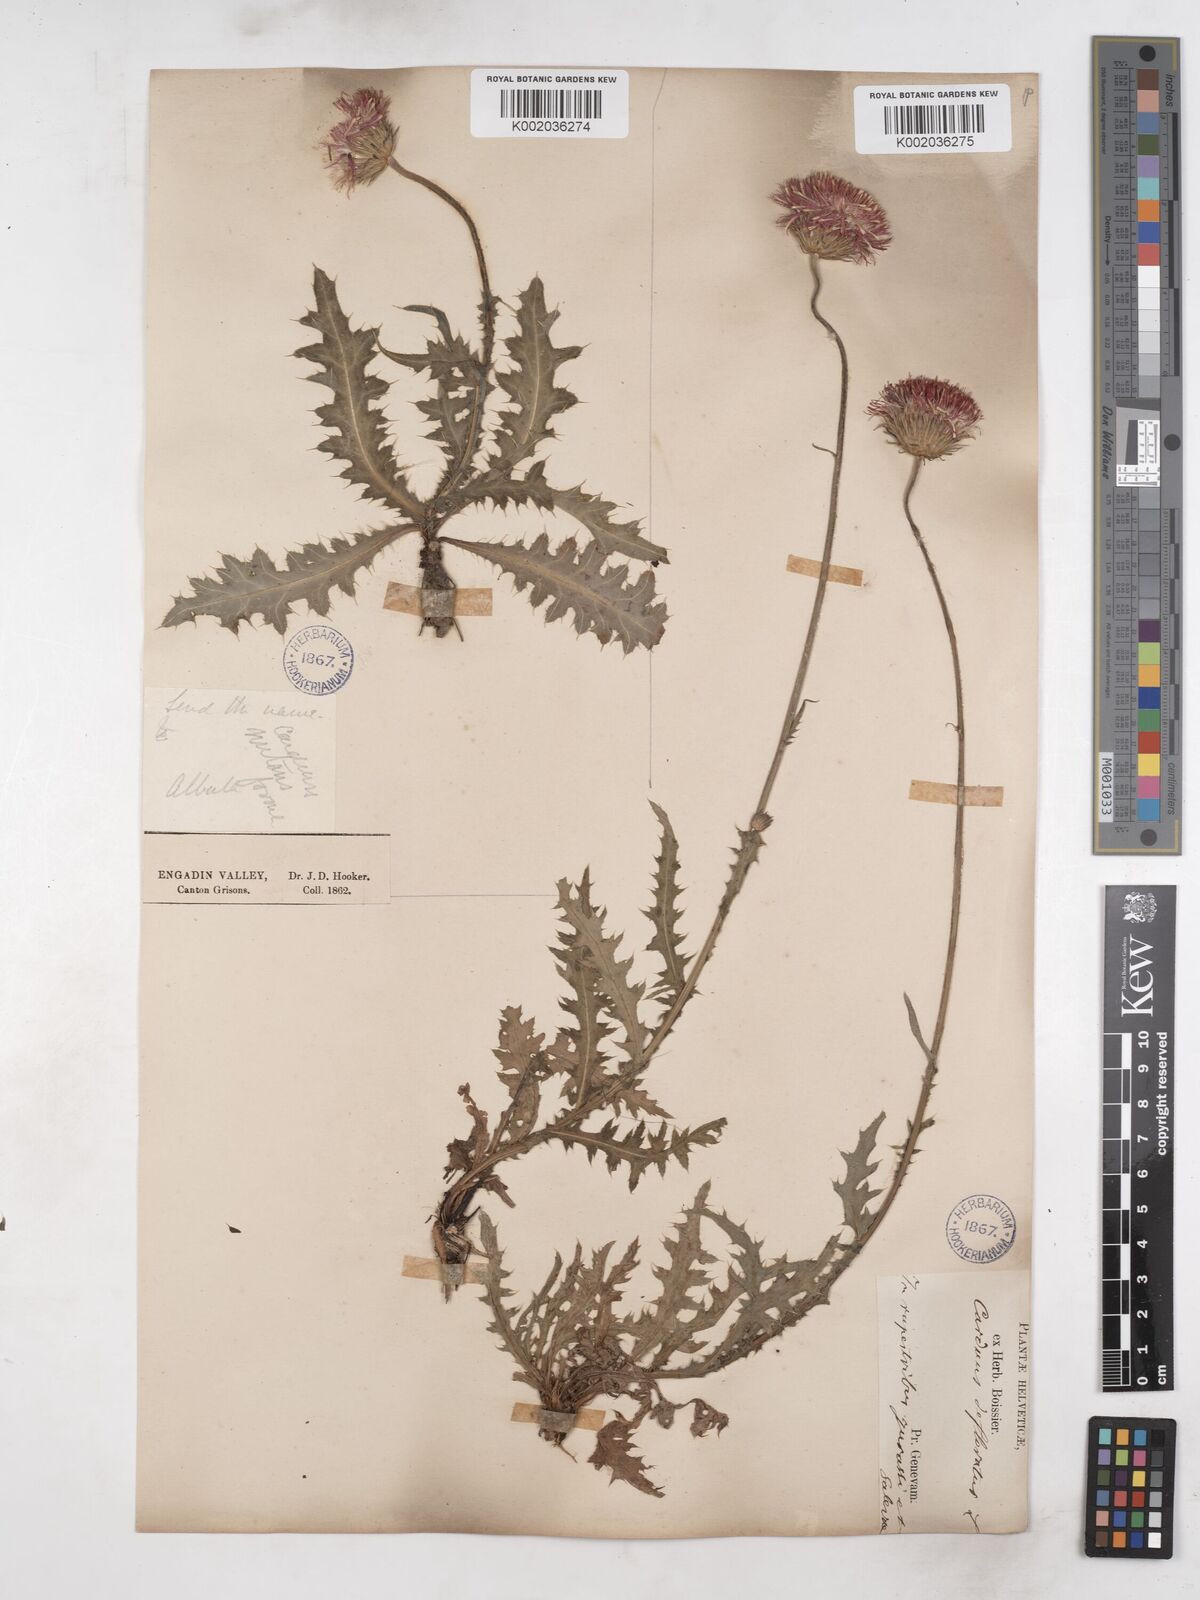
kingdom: Plantae
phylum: Tracheophyta
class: Magnoliopsida
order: Asterales
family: Asteraceae
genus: Carduus
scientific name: Carduus defloratus
